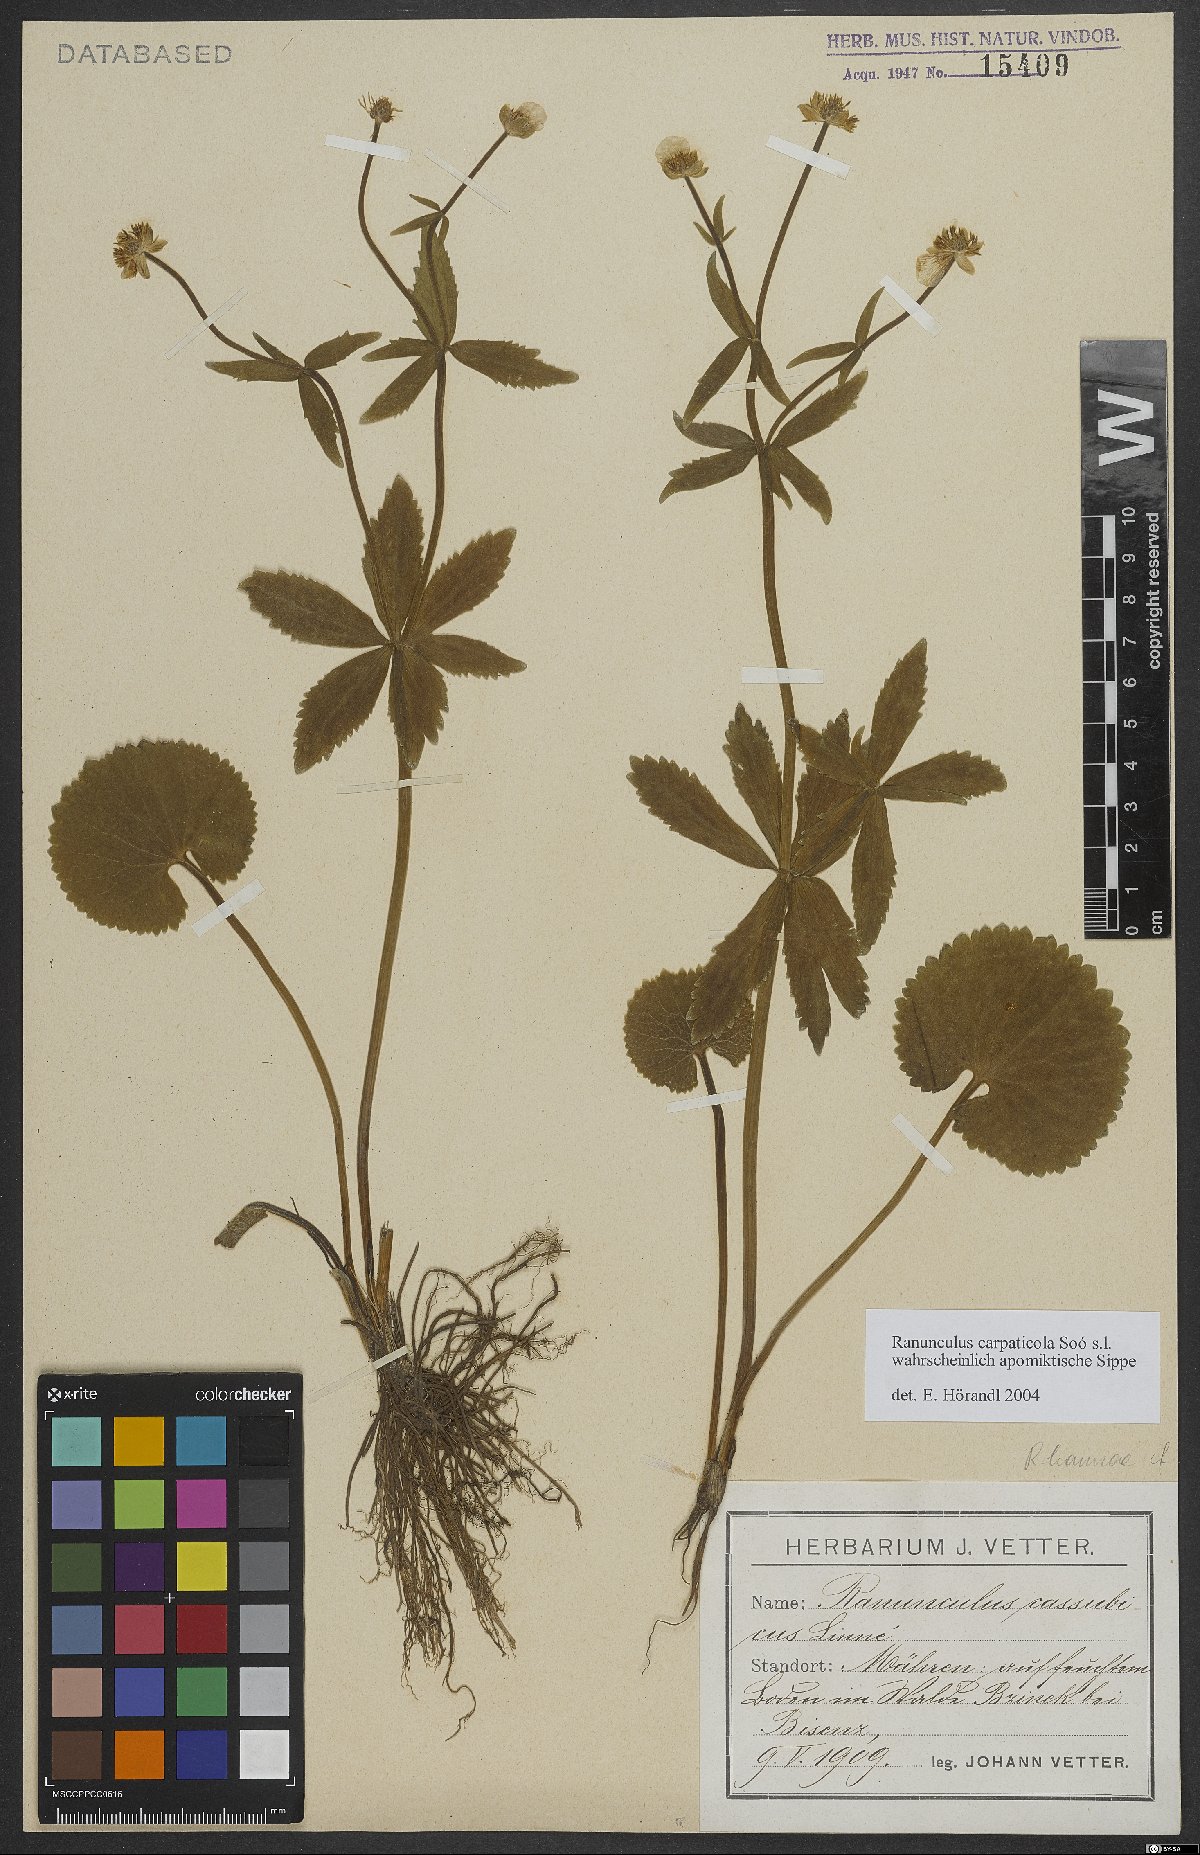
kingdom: Plantae
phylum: Tracheophyta
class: Magnoliopsida
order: Ranunculales
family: Ranunculaceae
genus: Ranunculus
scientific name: Ranunculus cassubicifolius
